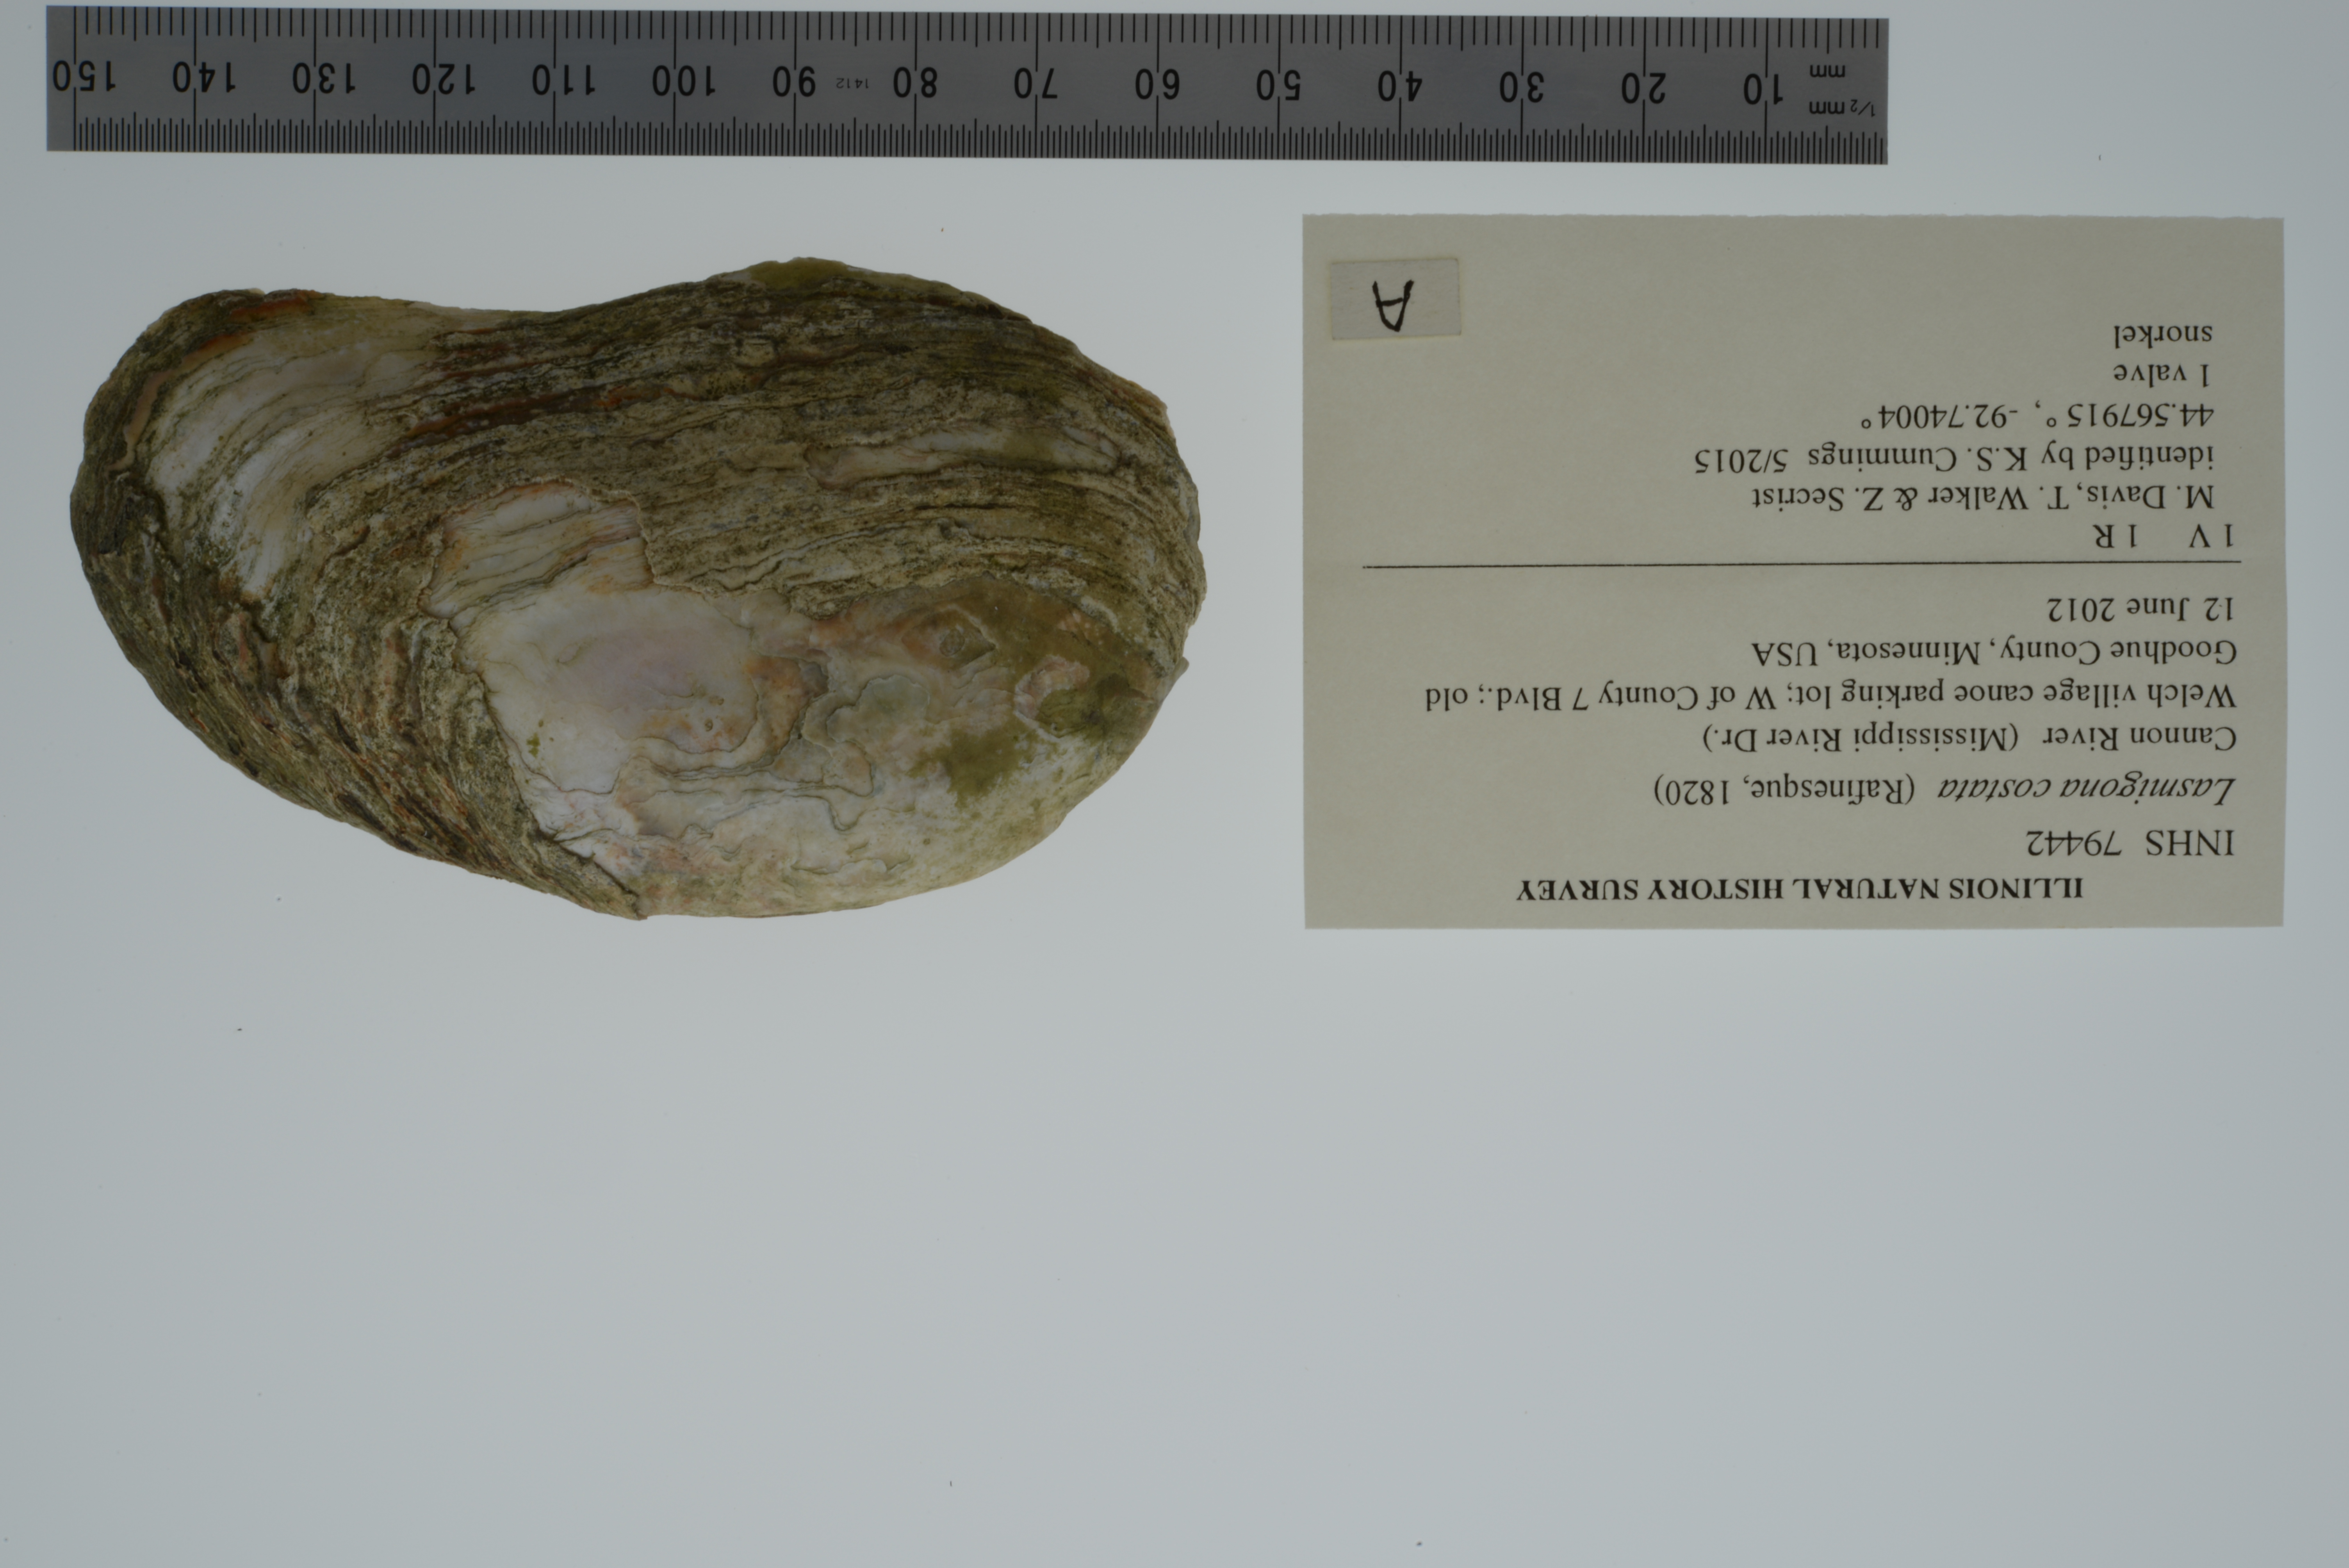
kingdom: Animalia
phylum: Mollusca
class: Bivalvia
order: Unionida
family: Unionidae
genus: Lasmigona
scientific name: Lasmigona costata
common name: Flutedshell
